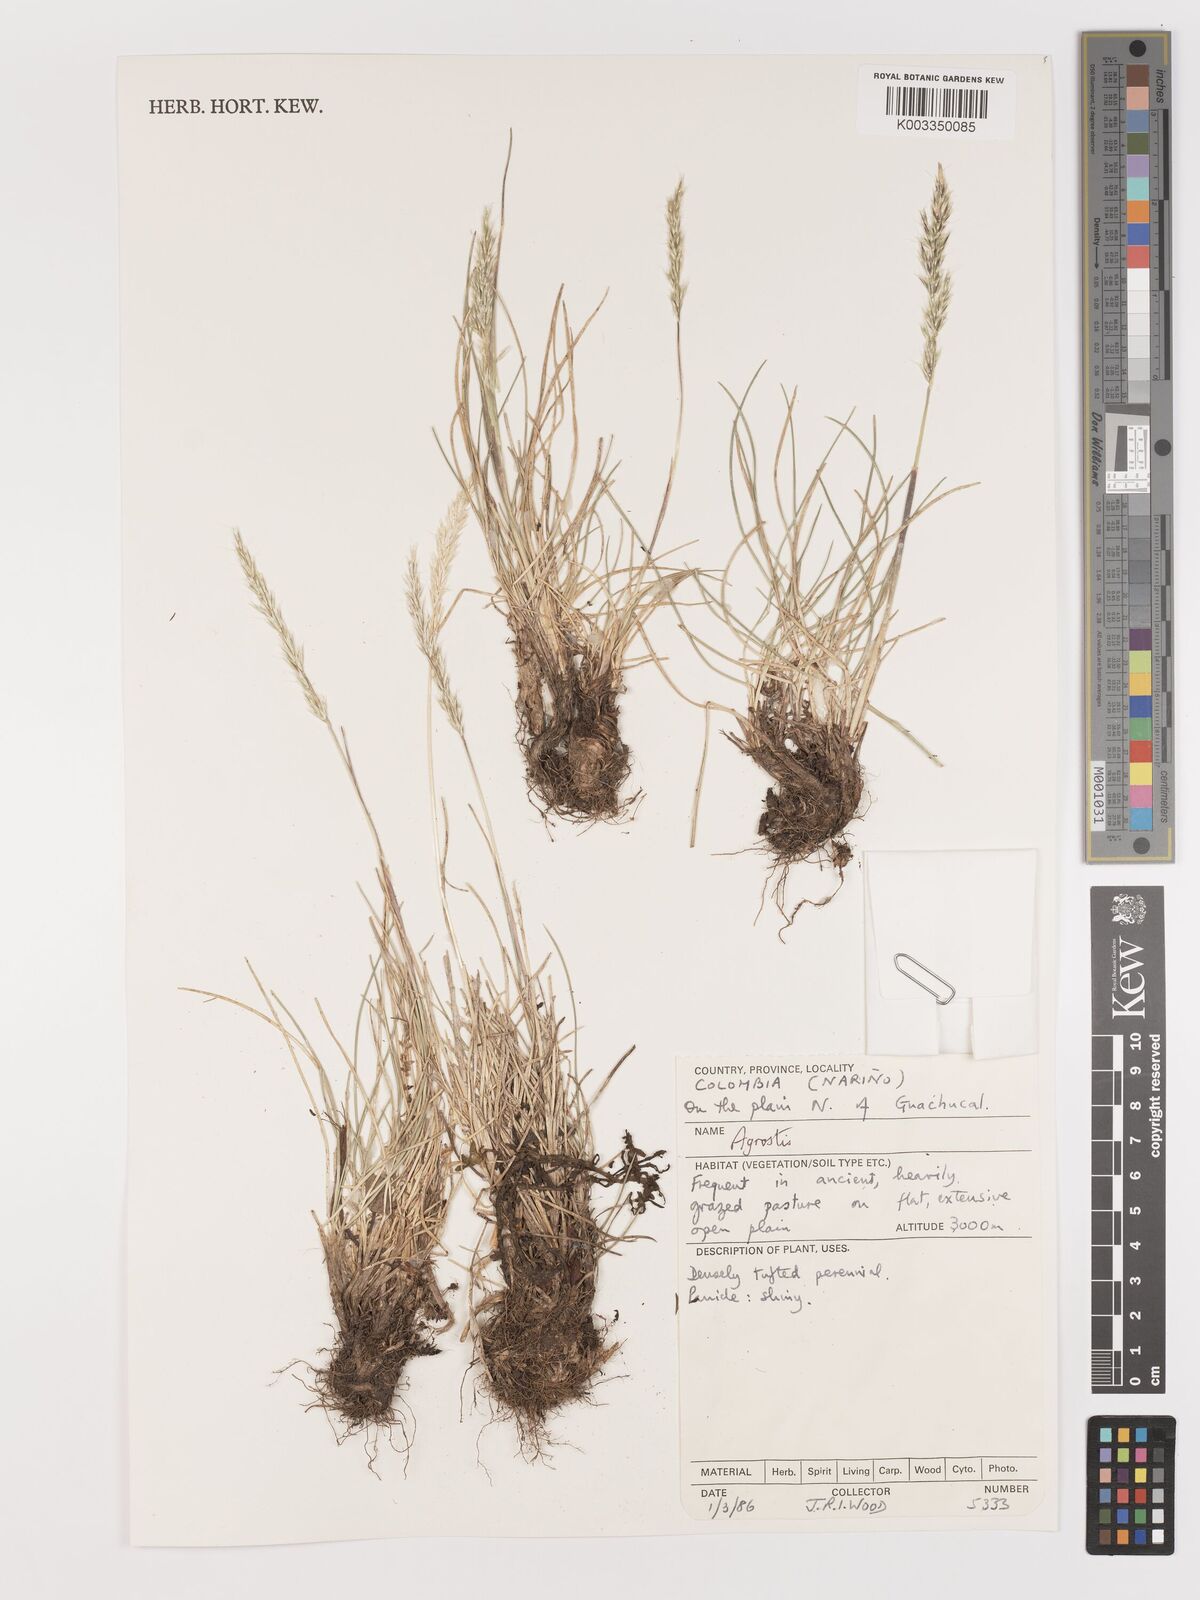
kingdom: Plantae
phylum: Tracheophyta
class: Liliopsida
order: Poales
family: Poaceae
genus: Agrostis
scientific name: Agrostis
